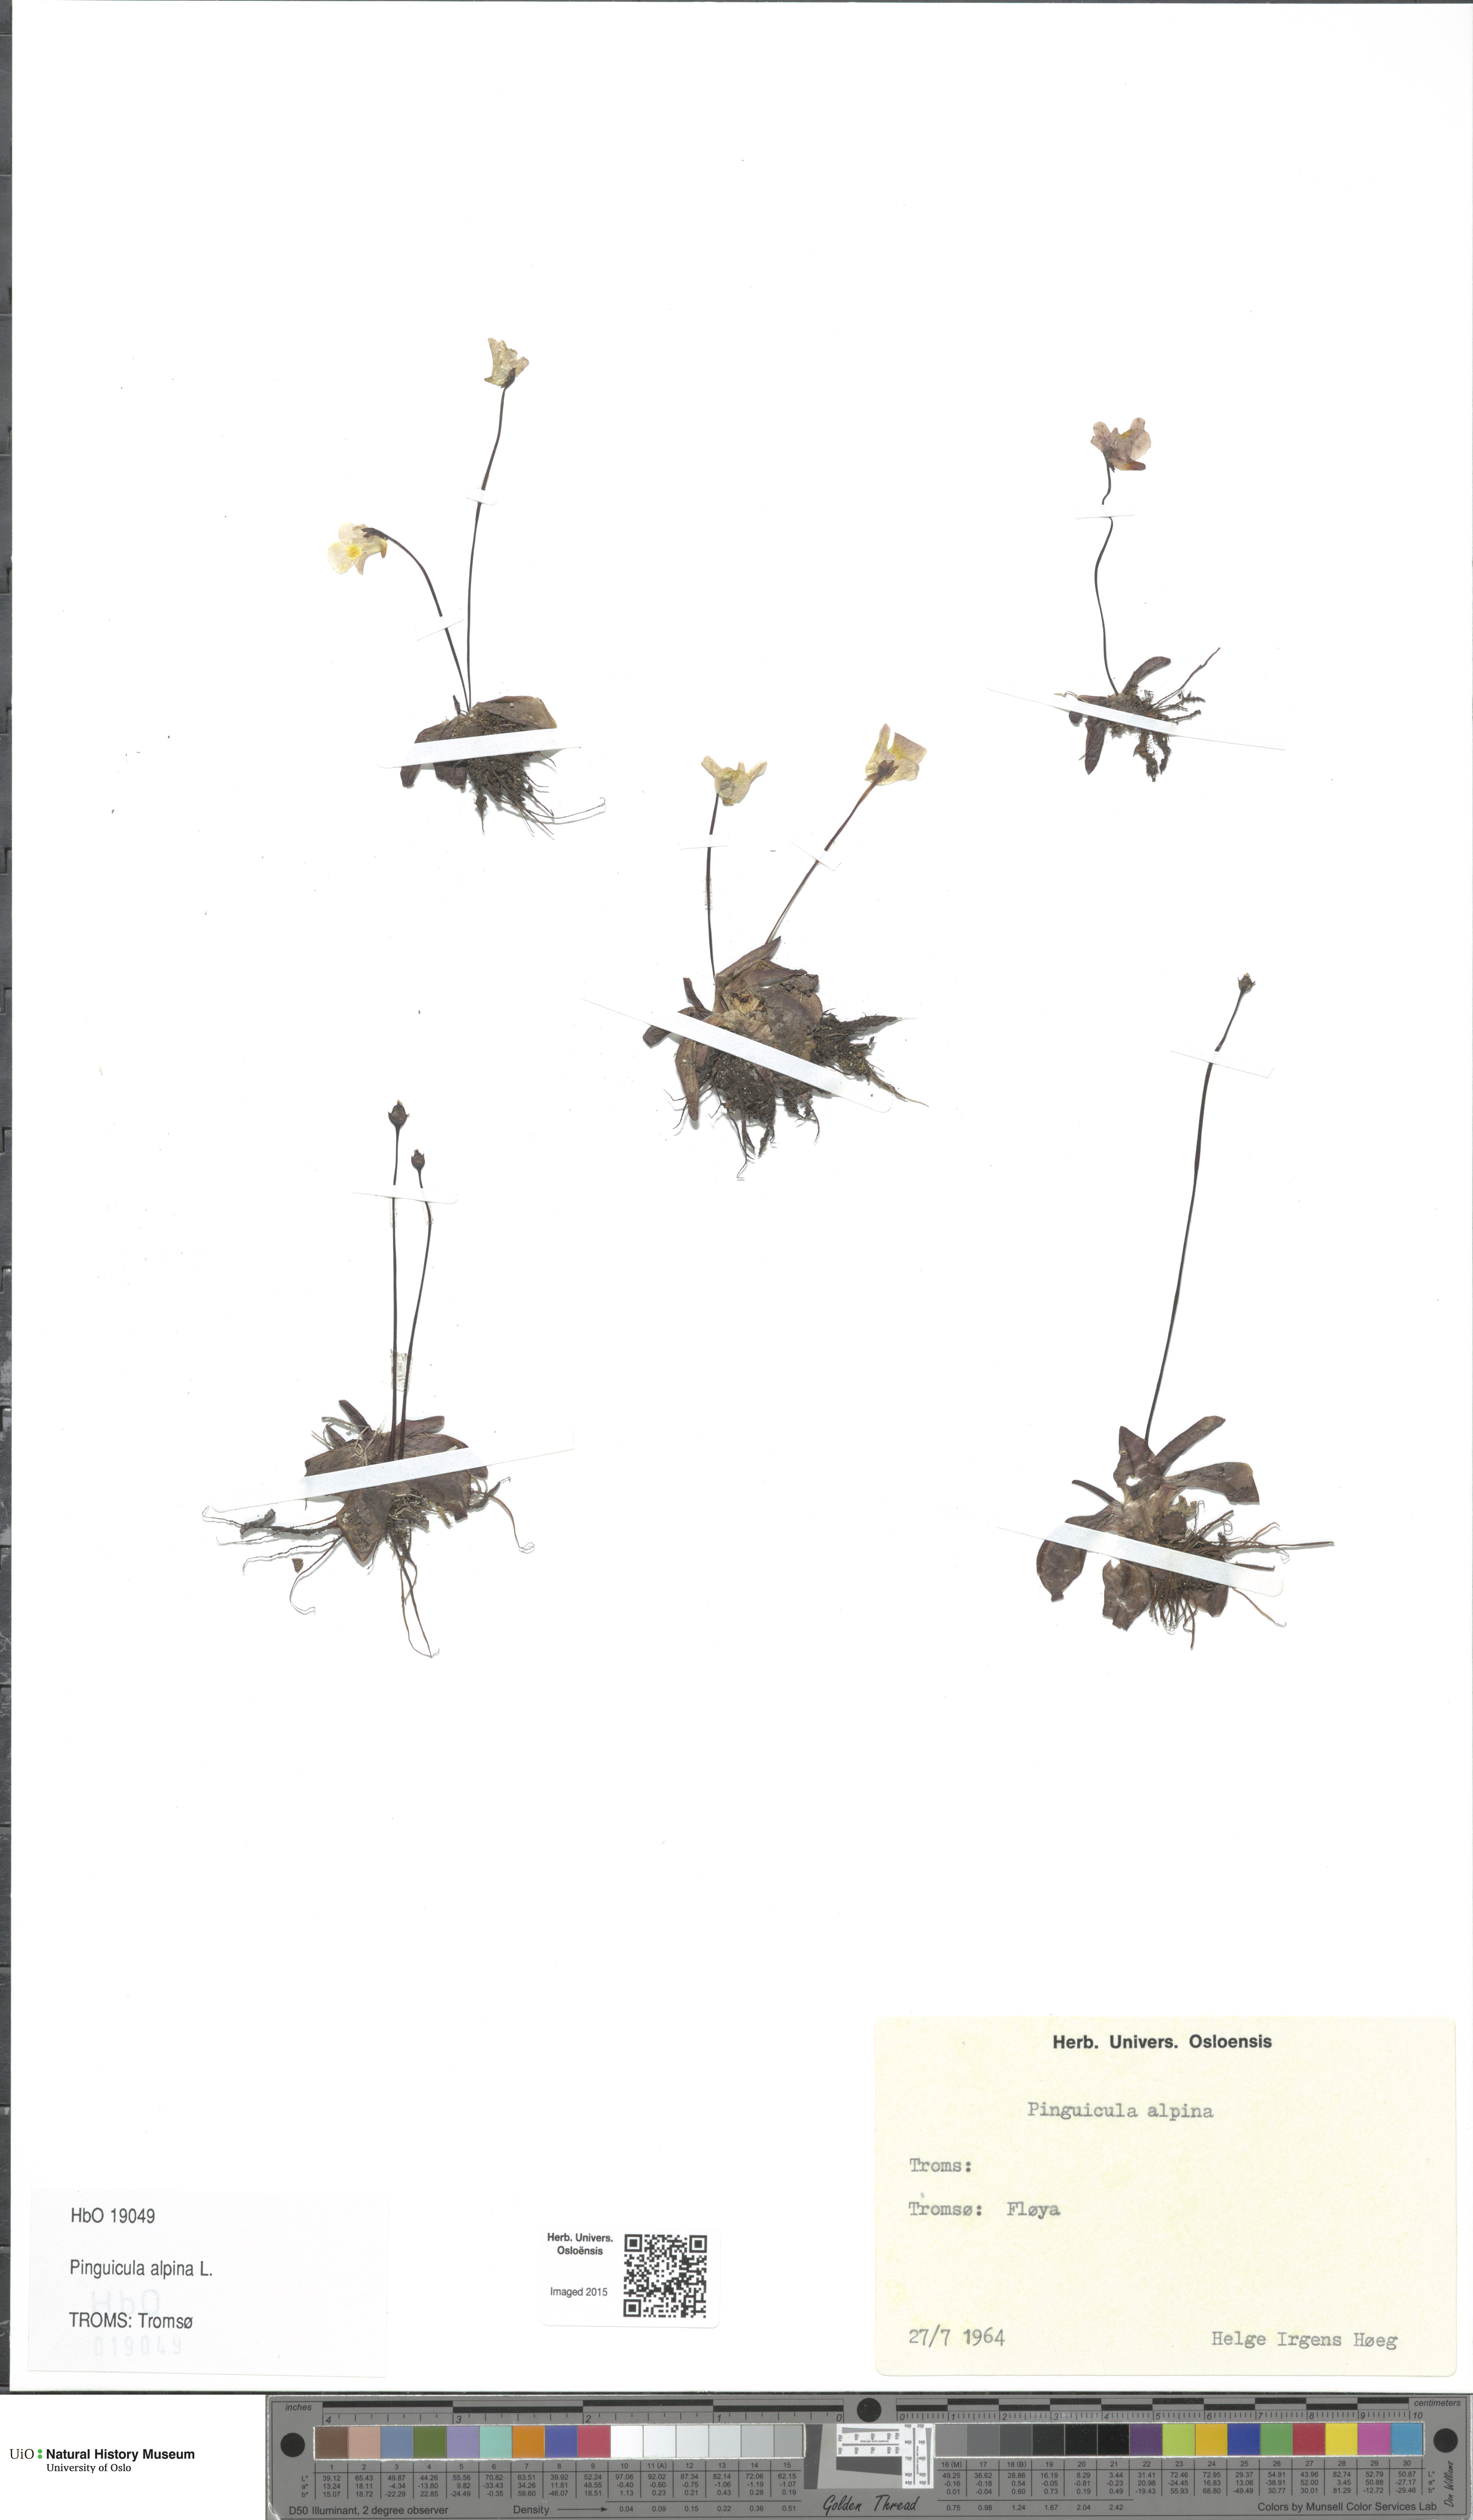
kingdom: Plantae
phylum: Tracheophyta
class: Magnoliopsida
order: Lamiales
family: Lentibulariaceae
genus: Pinguicula
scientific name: Pinguicula alpina
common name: Alpine butterwort
